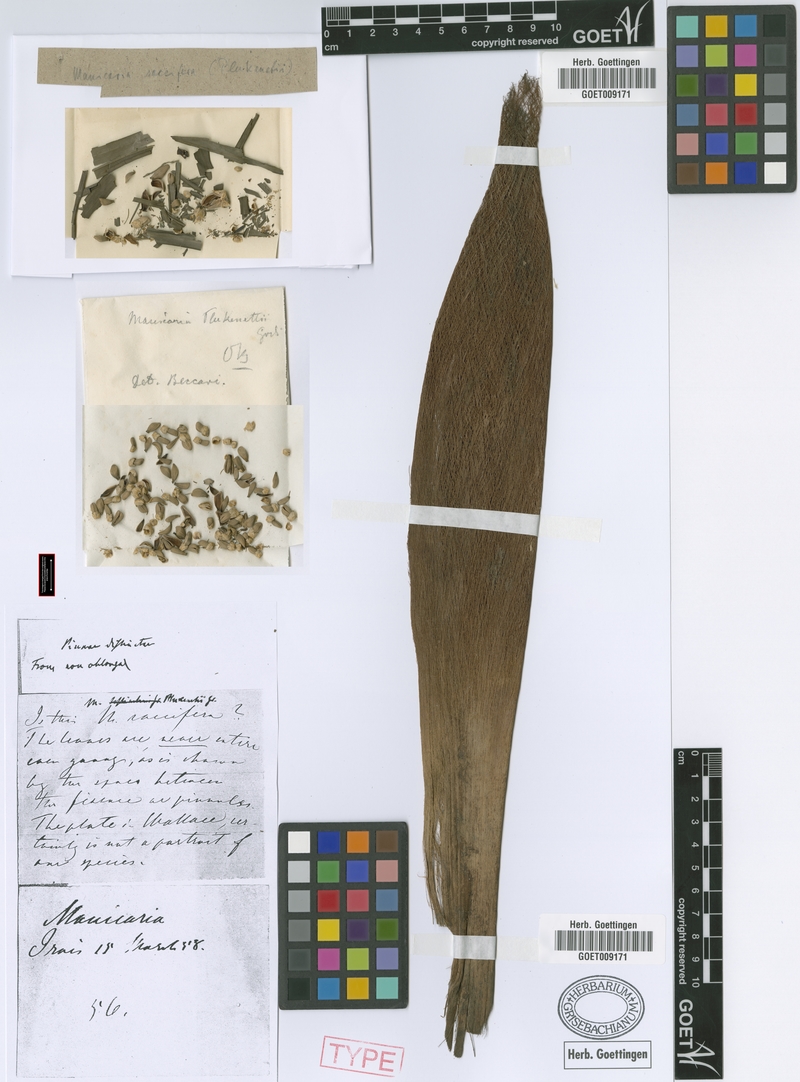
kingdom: Plantae
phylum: Tracheophyta
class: Liliopsida
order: Arecales
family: Arecaceae
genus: Manicaria
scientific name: Manicaria saccifera
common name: Sea coconut
